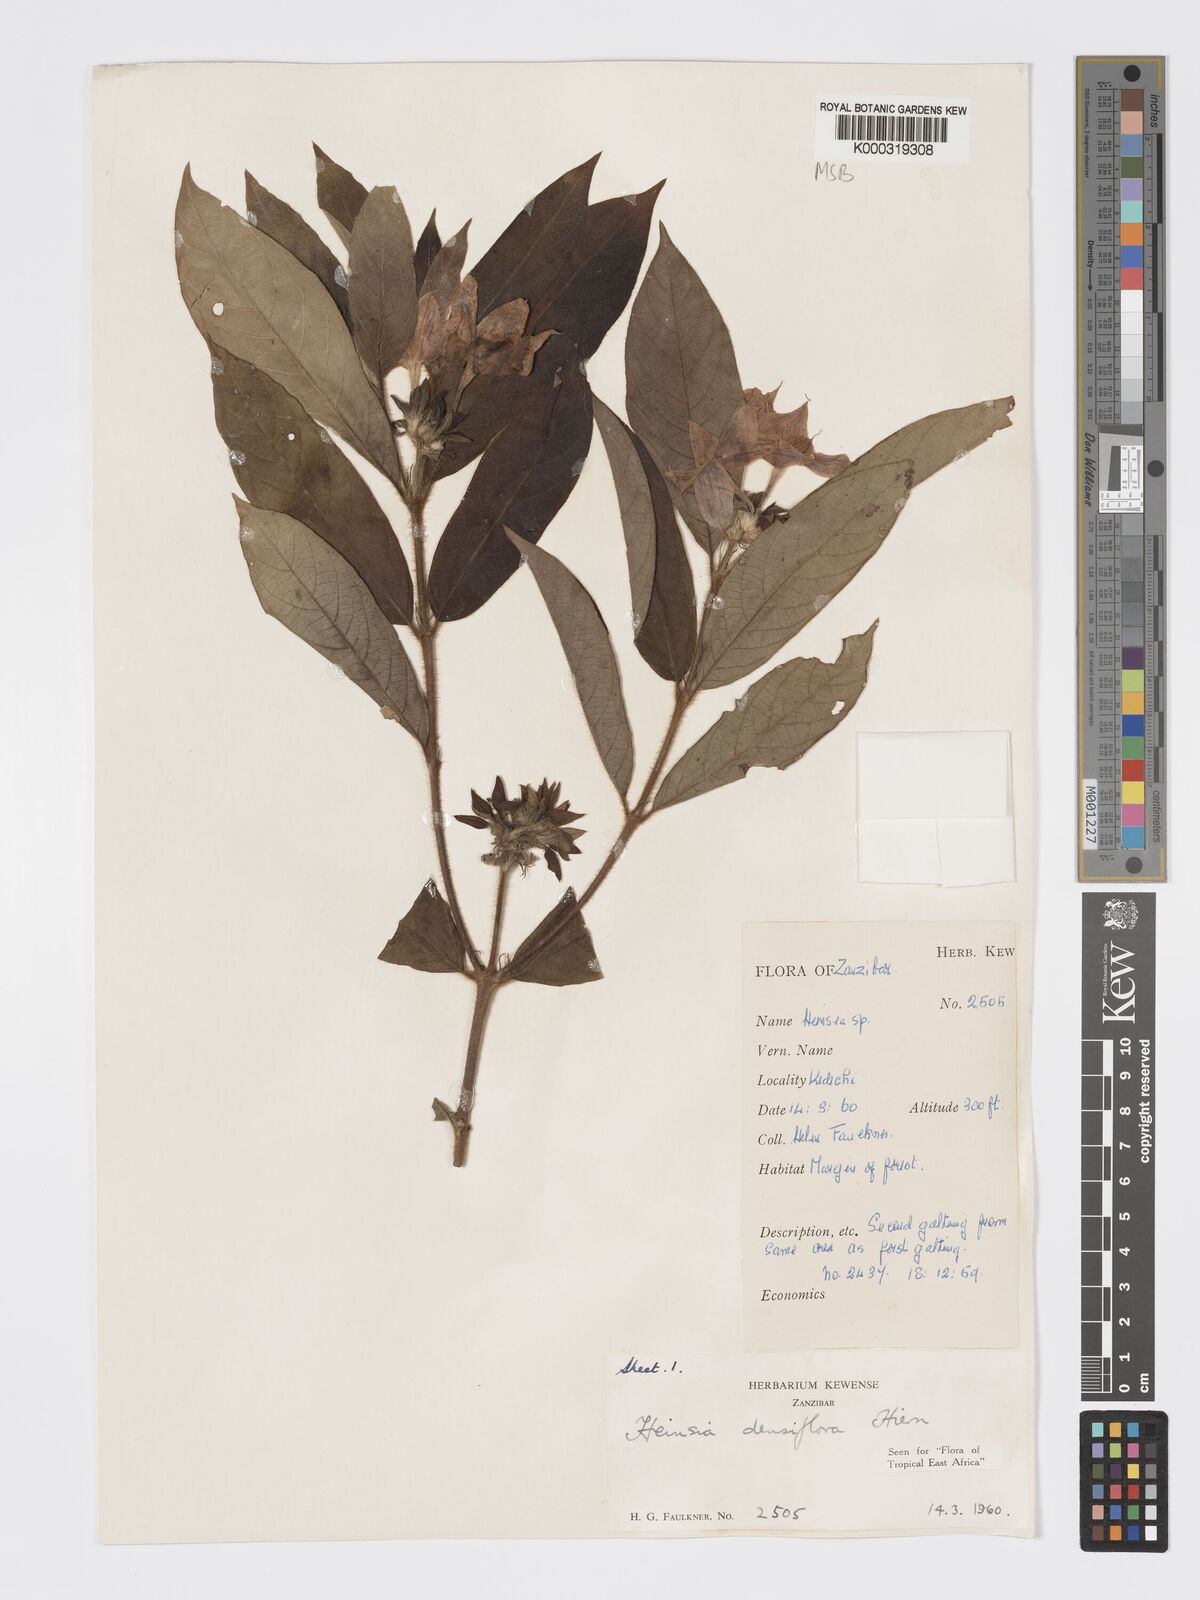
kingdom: Plantae
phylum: Tracheophyta
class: Magnoliopsida
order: Gentianales
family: Rubiaceae
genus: Heinsia
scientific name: Heinsia zanzibarica
